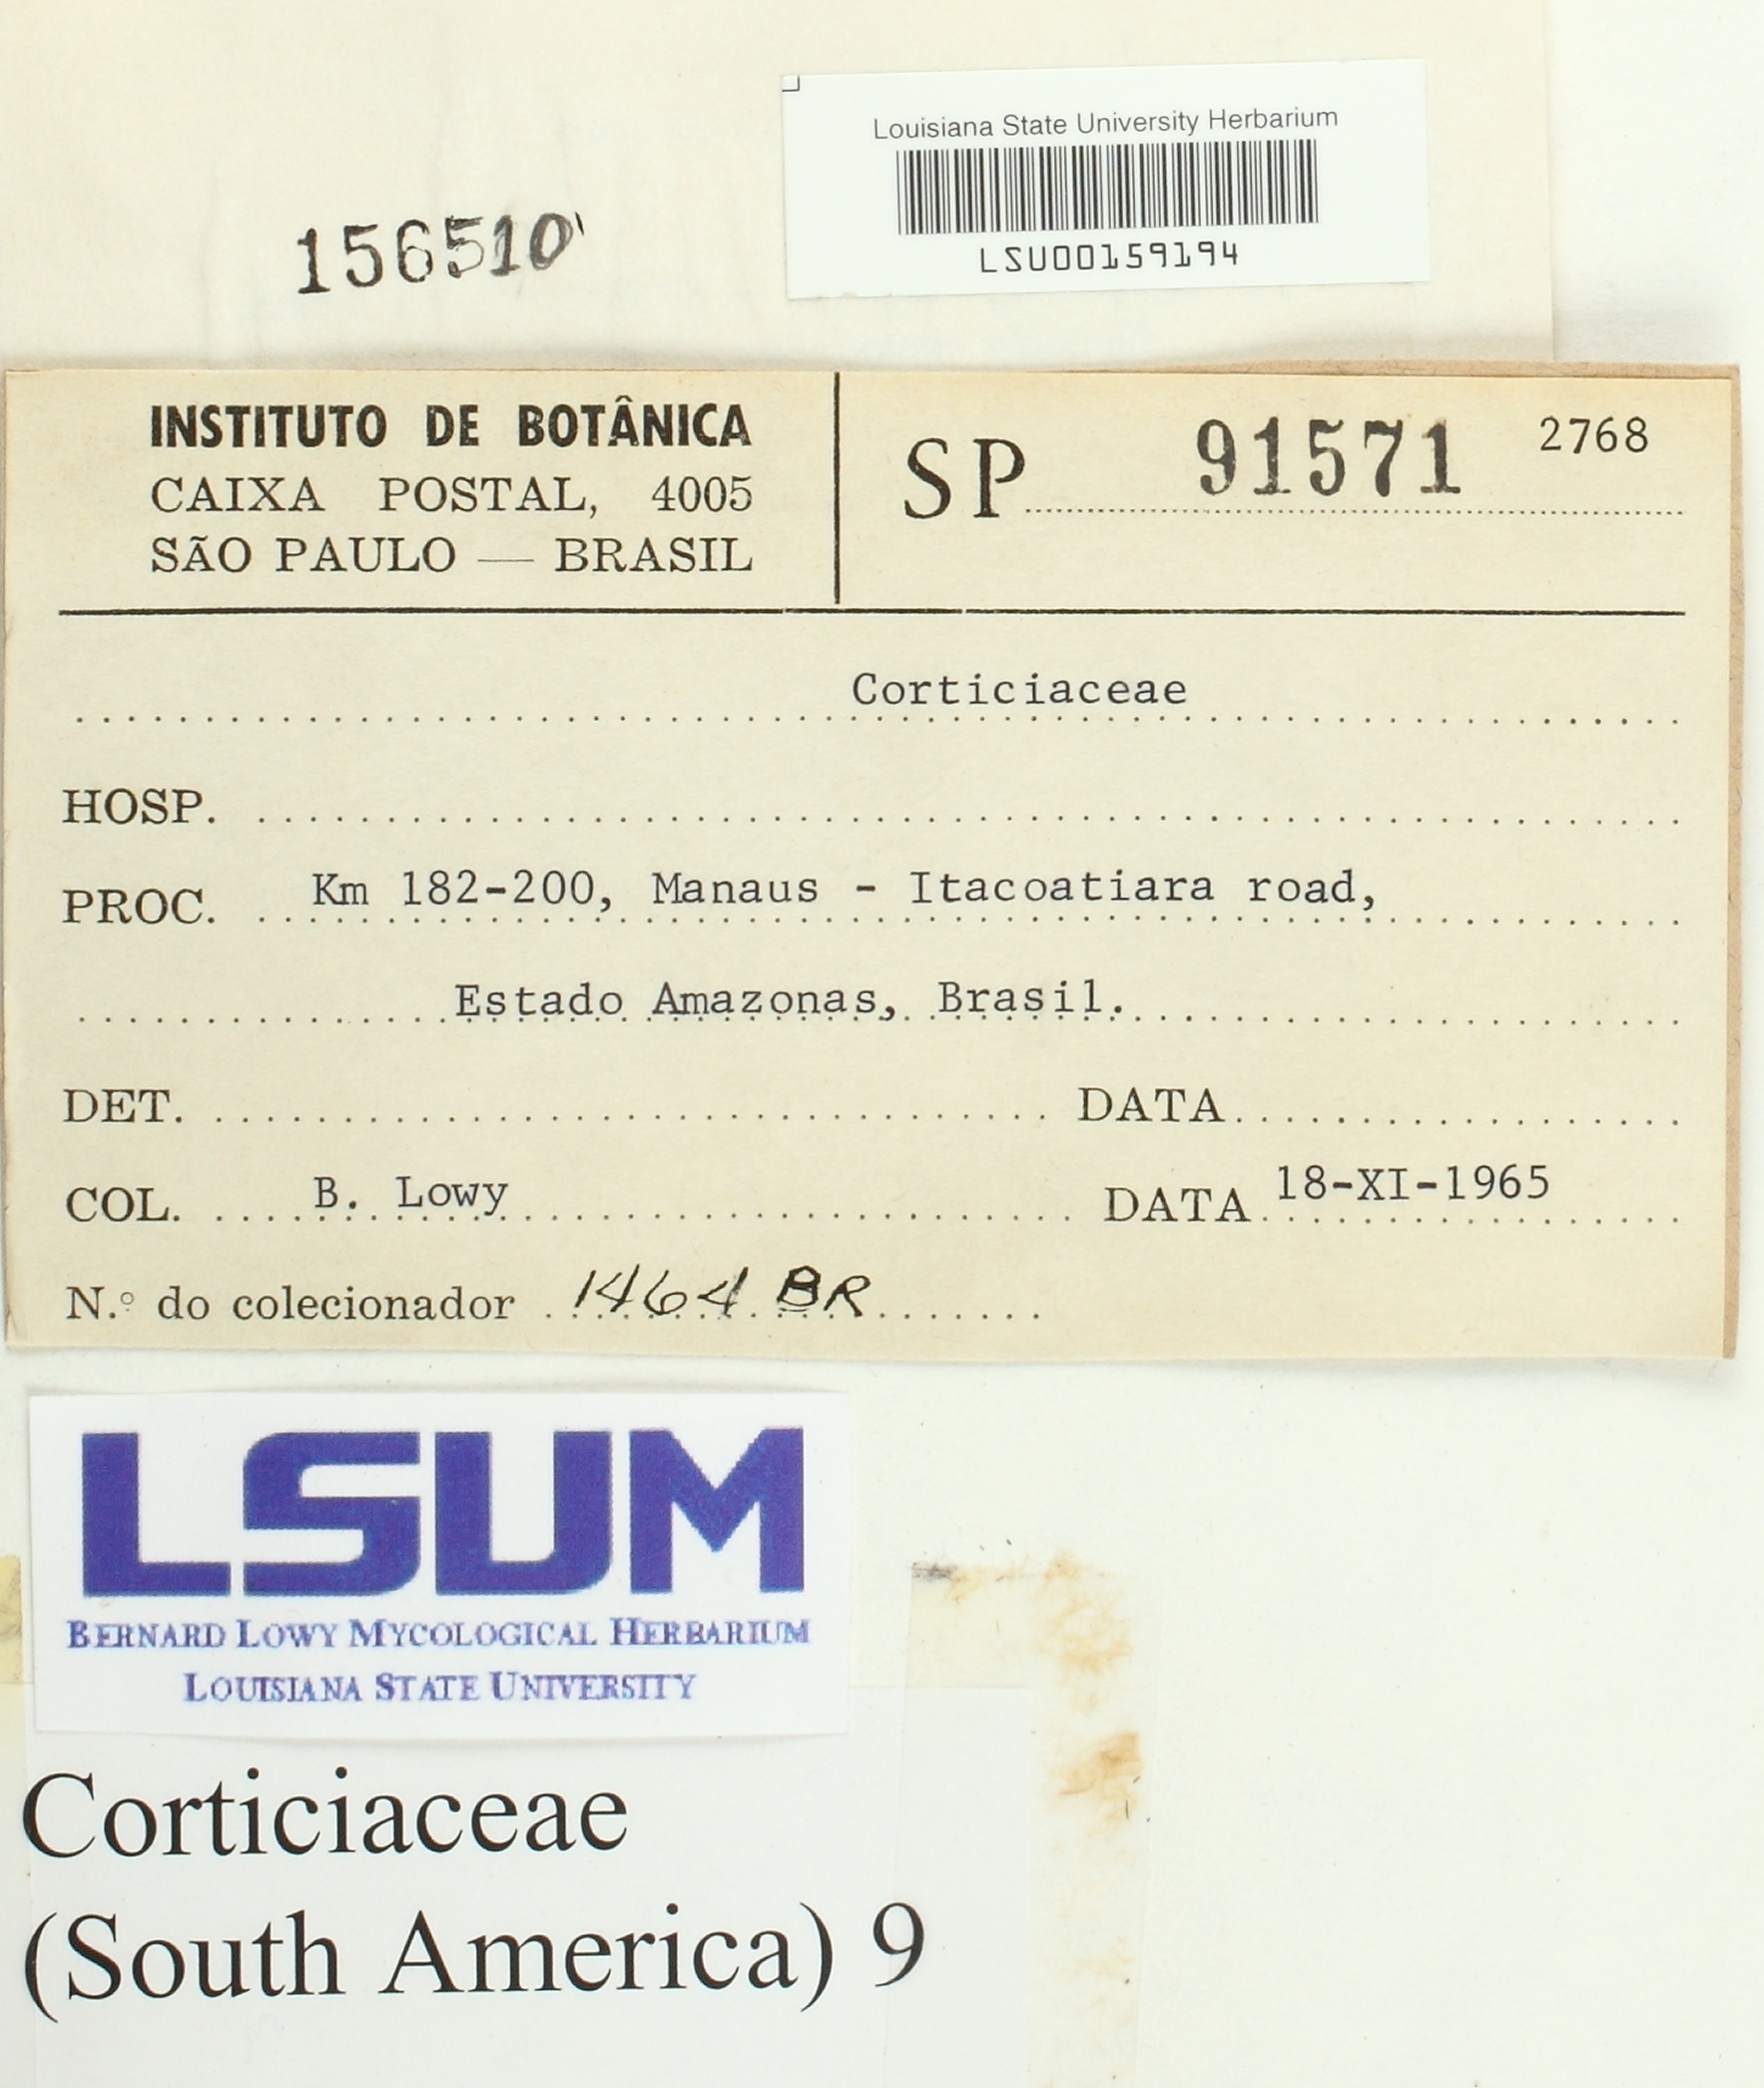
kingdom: Fungi
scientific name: Fungi
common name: Fungi
